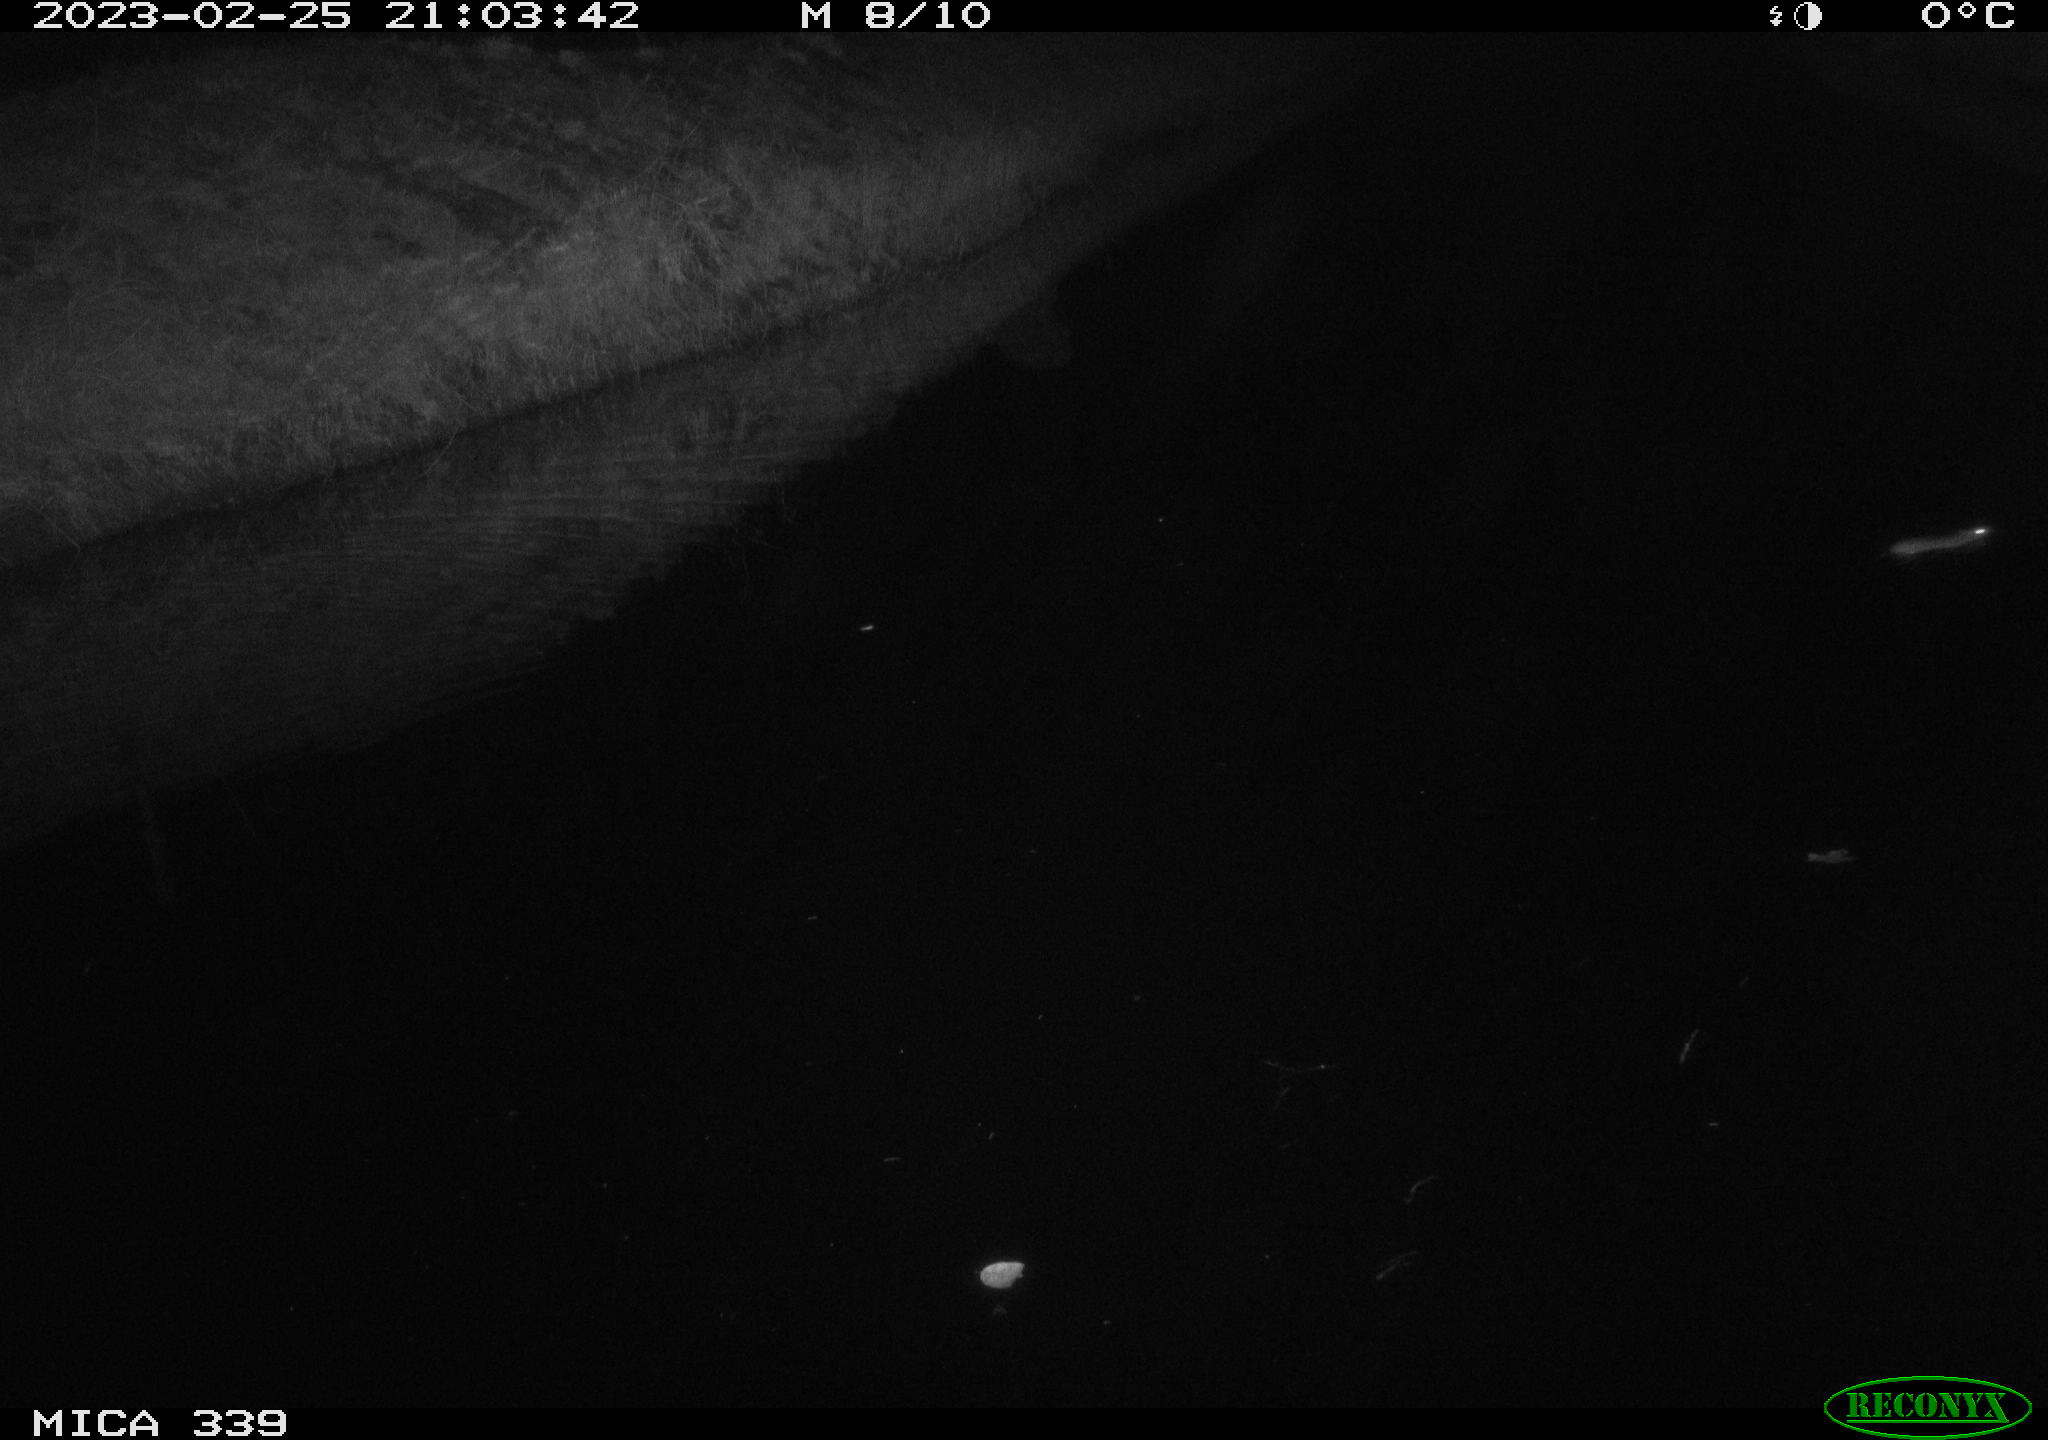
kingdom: Animalia
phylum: Chordata
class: Mammalia
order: Rodentia
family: Muridae
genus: Rattus
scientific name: Rattus norvegicus
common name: Brown rat
